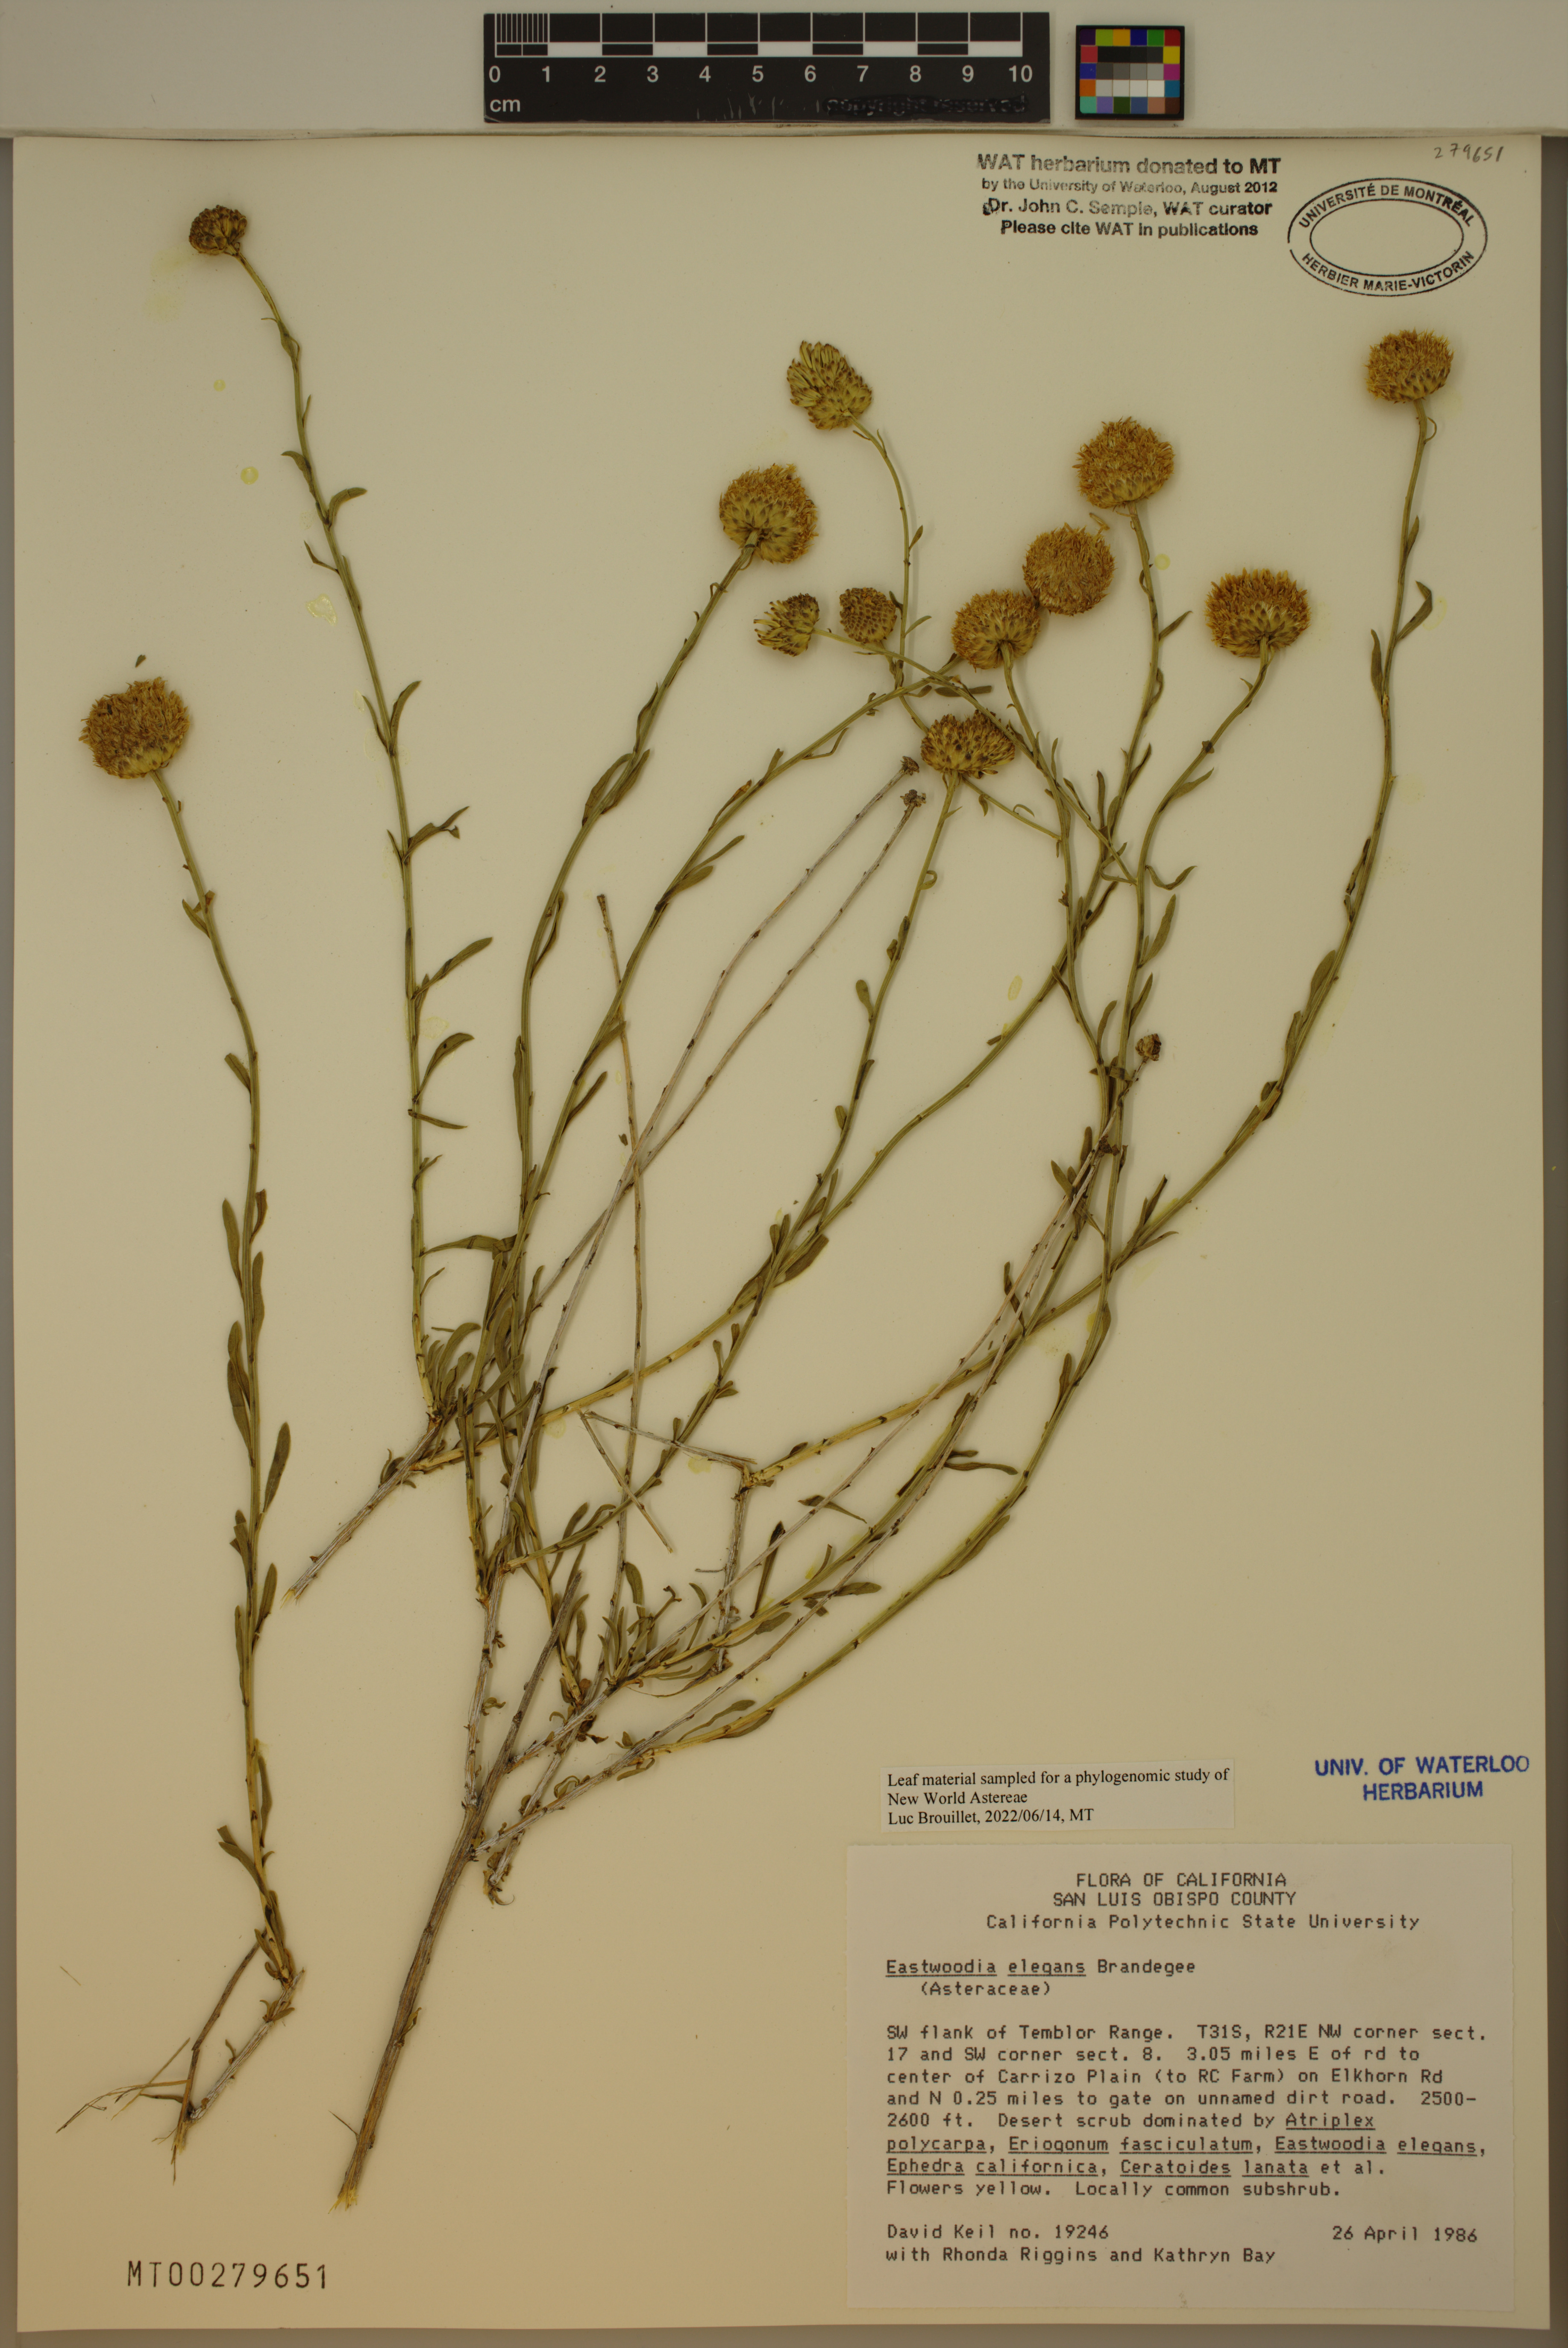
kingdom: Plantae
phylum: Tracheophyta
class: Magnoliopsida
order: Asterales
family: Asteraceae
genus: Eastwoodia
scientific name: Eastwoodia elegans
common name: Yellow-aster
